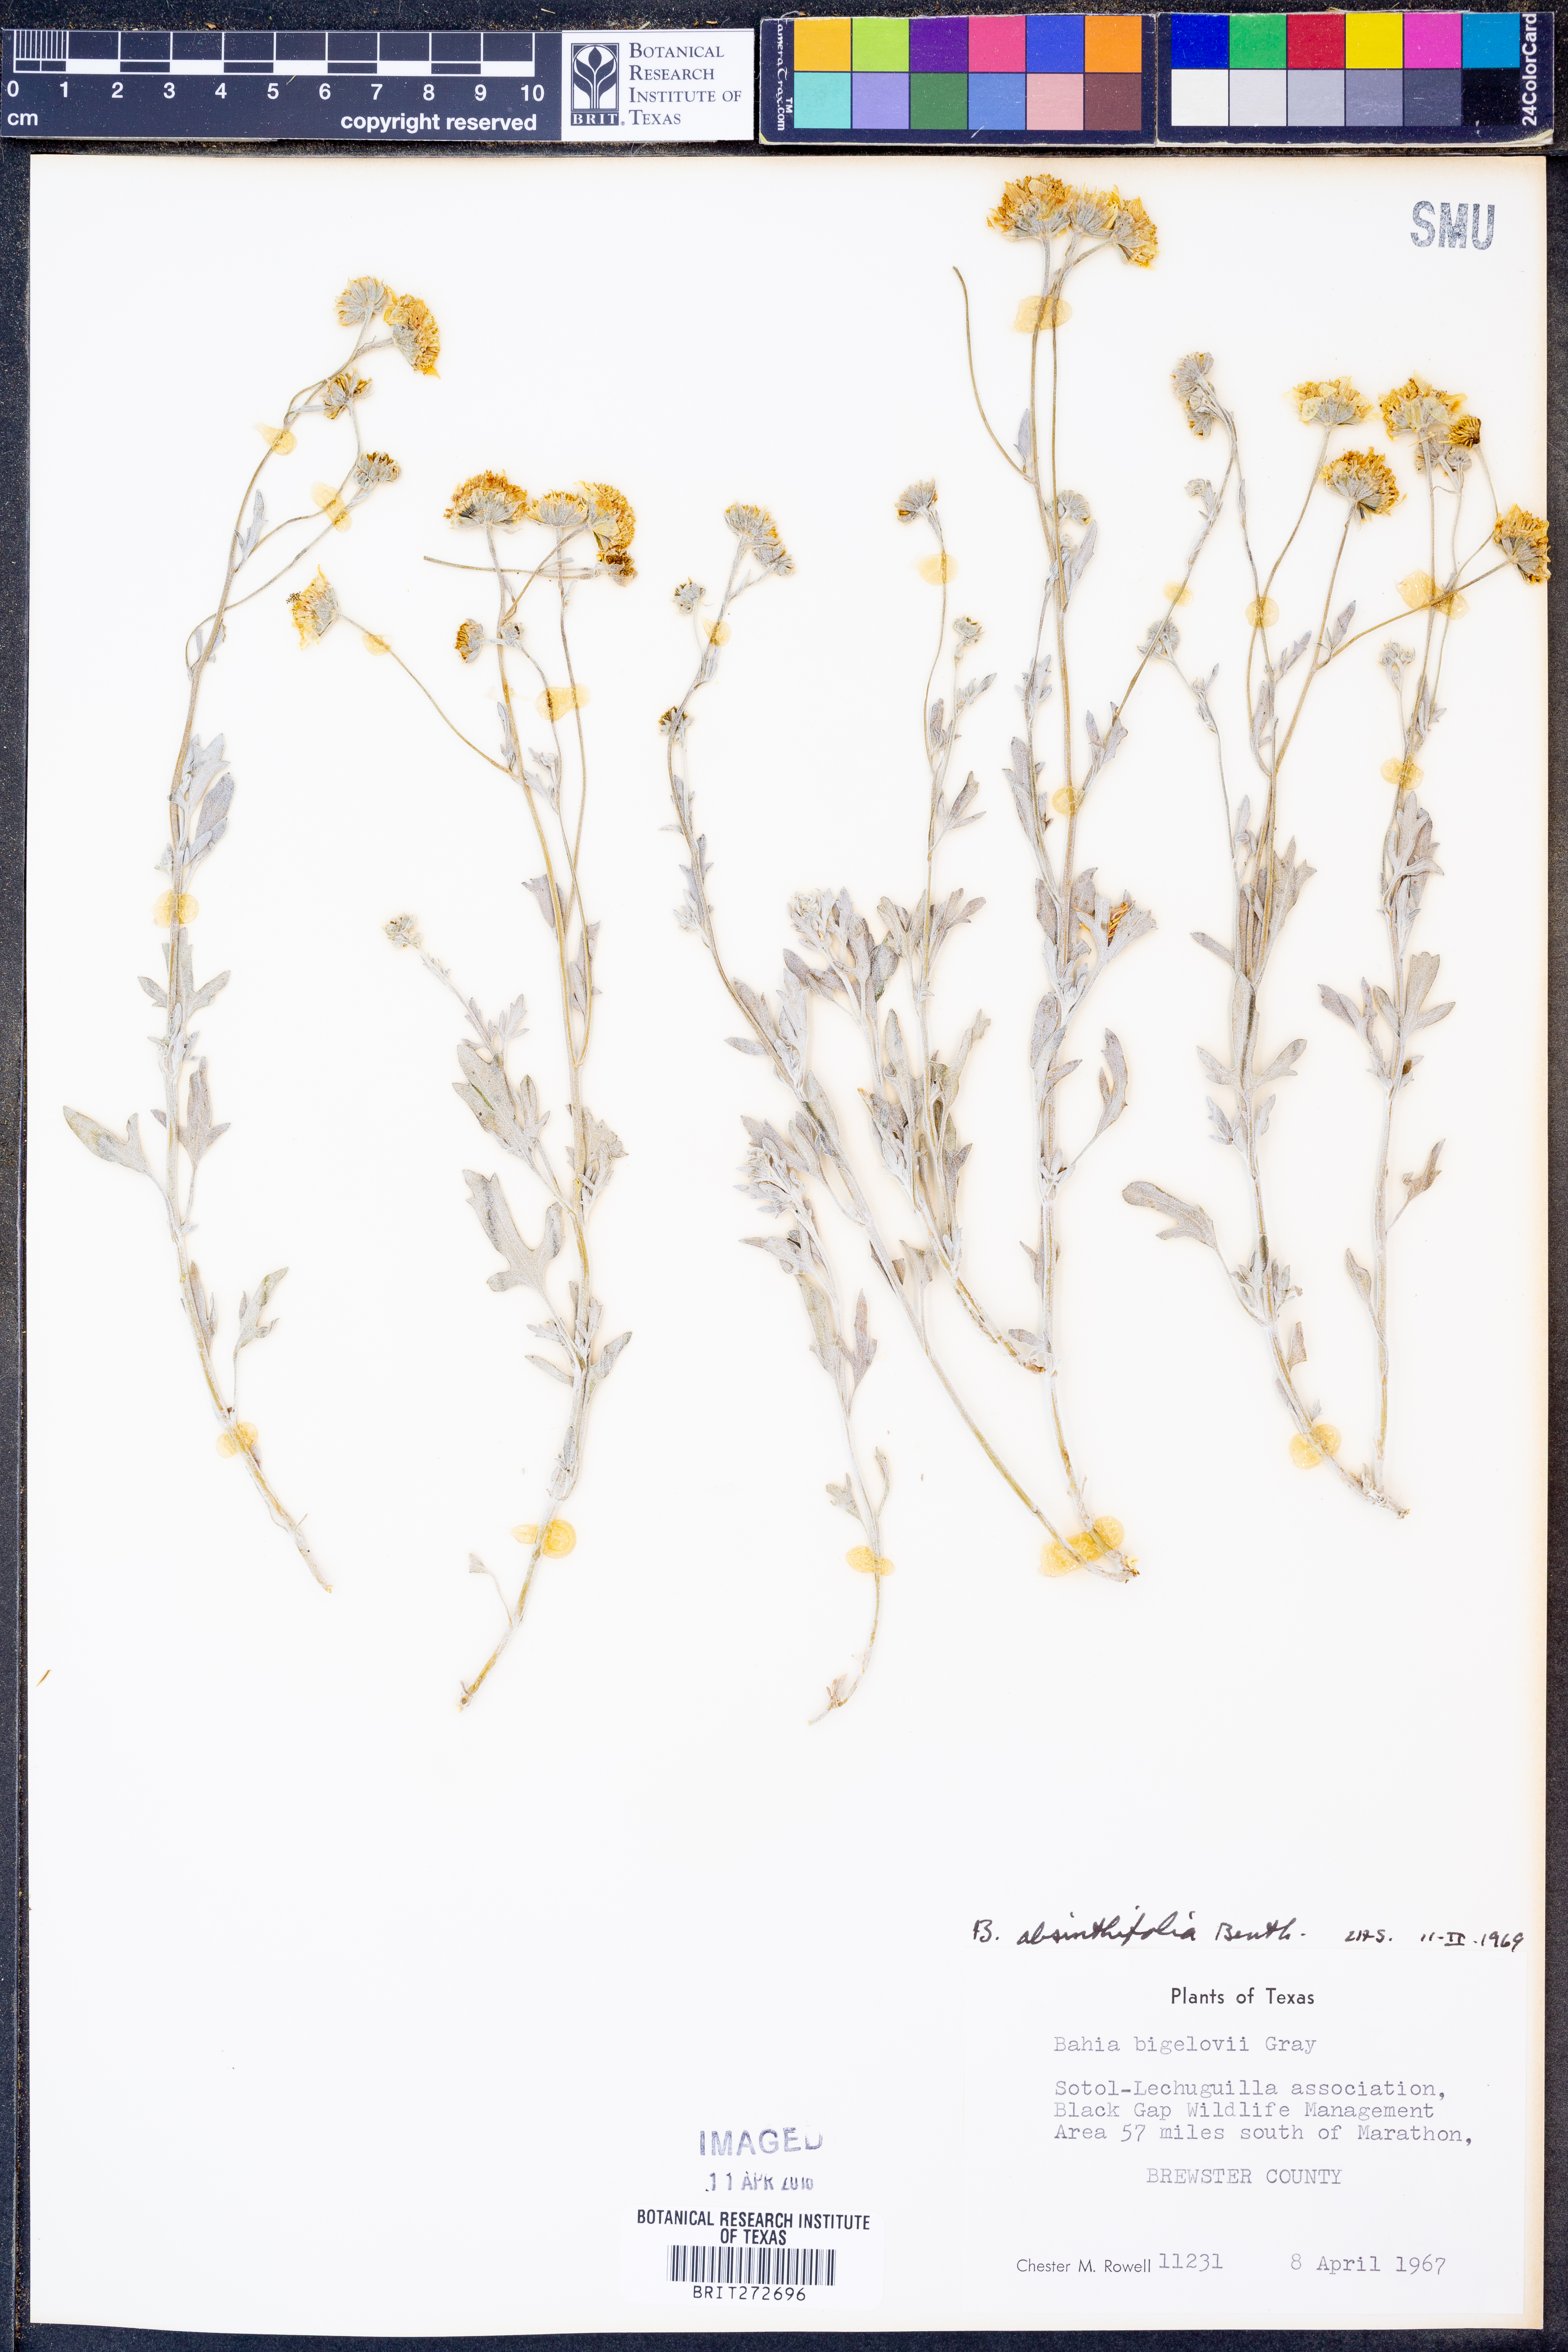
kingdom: Plantae
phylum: Tracheophyta
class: Magnoliopsida
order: Asterales
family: Asteraceae
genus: Picradeniopsis
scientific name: Picradeniopsis absinthifolia
